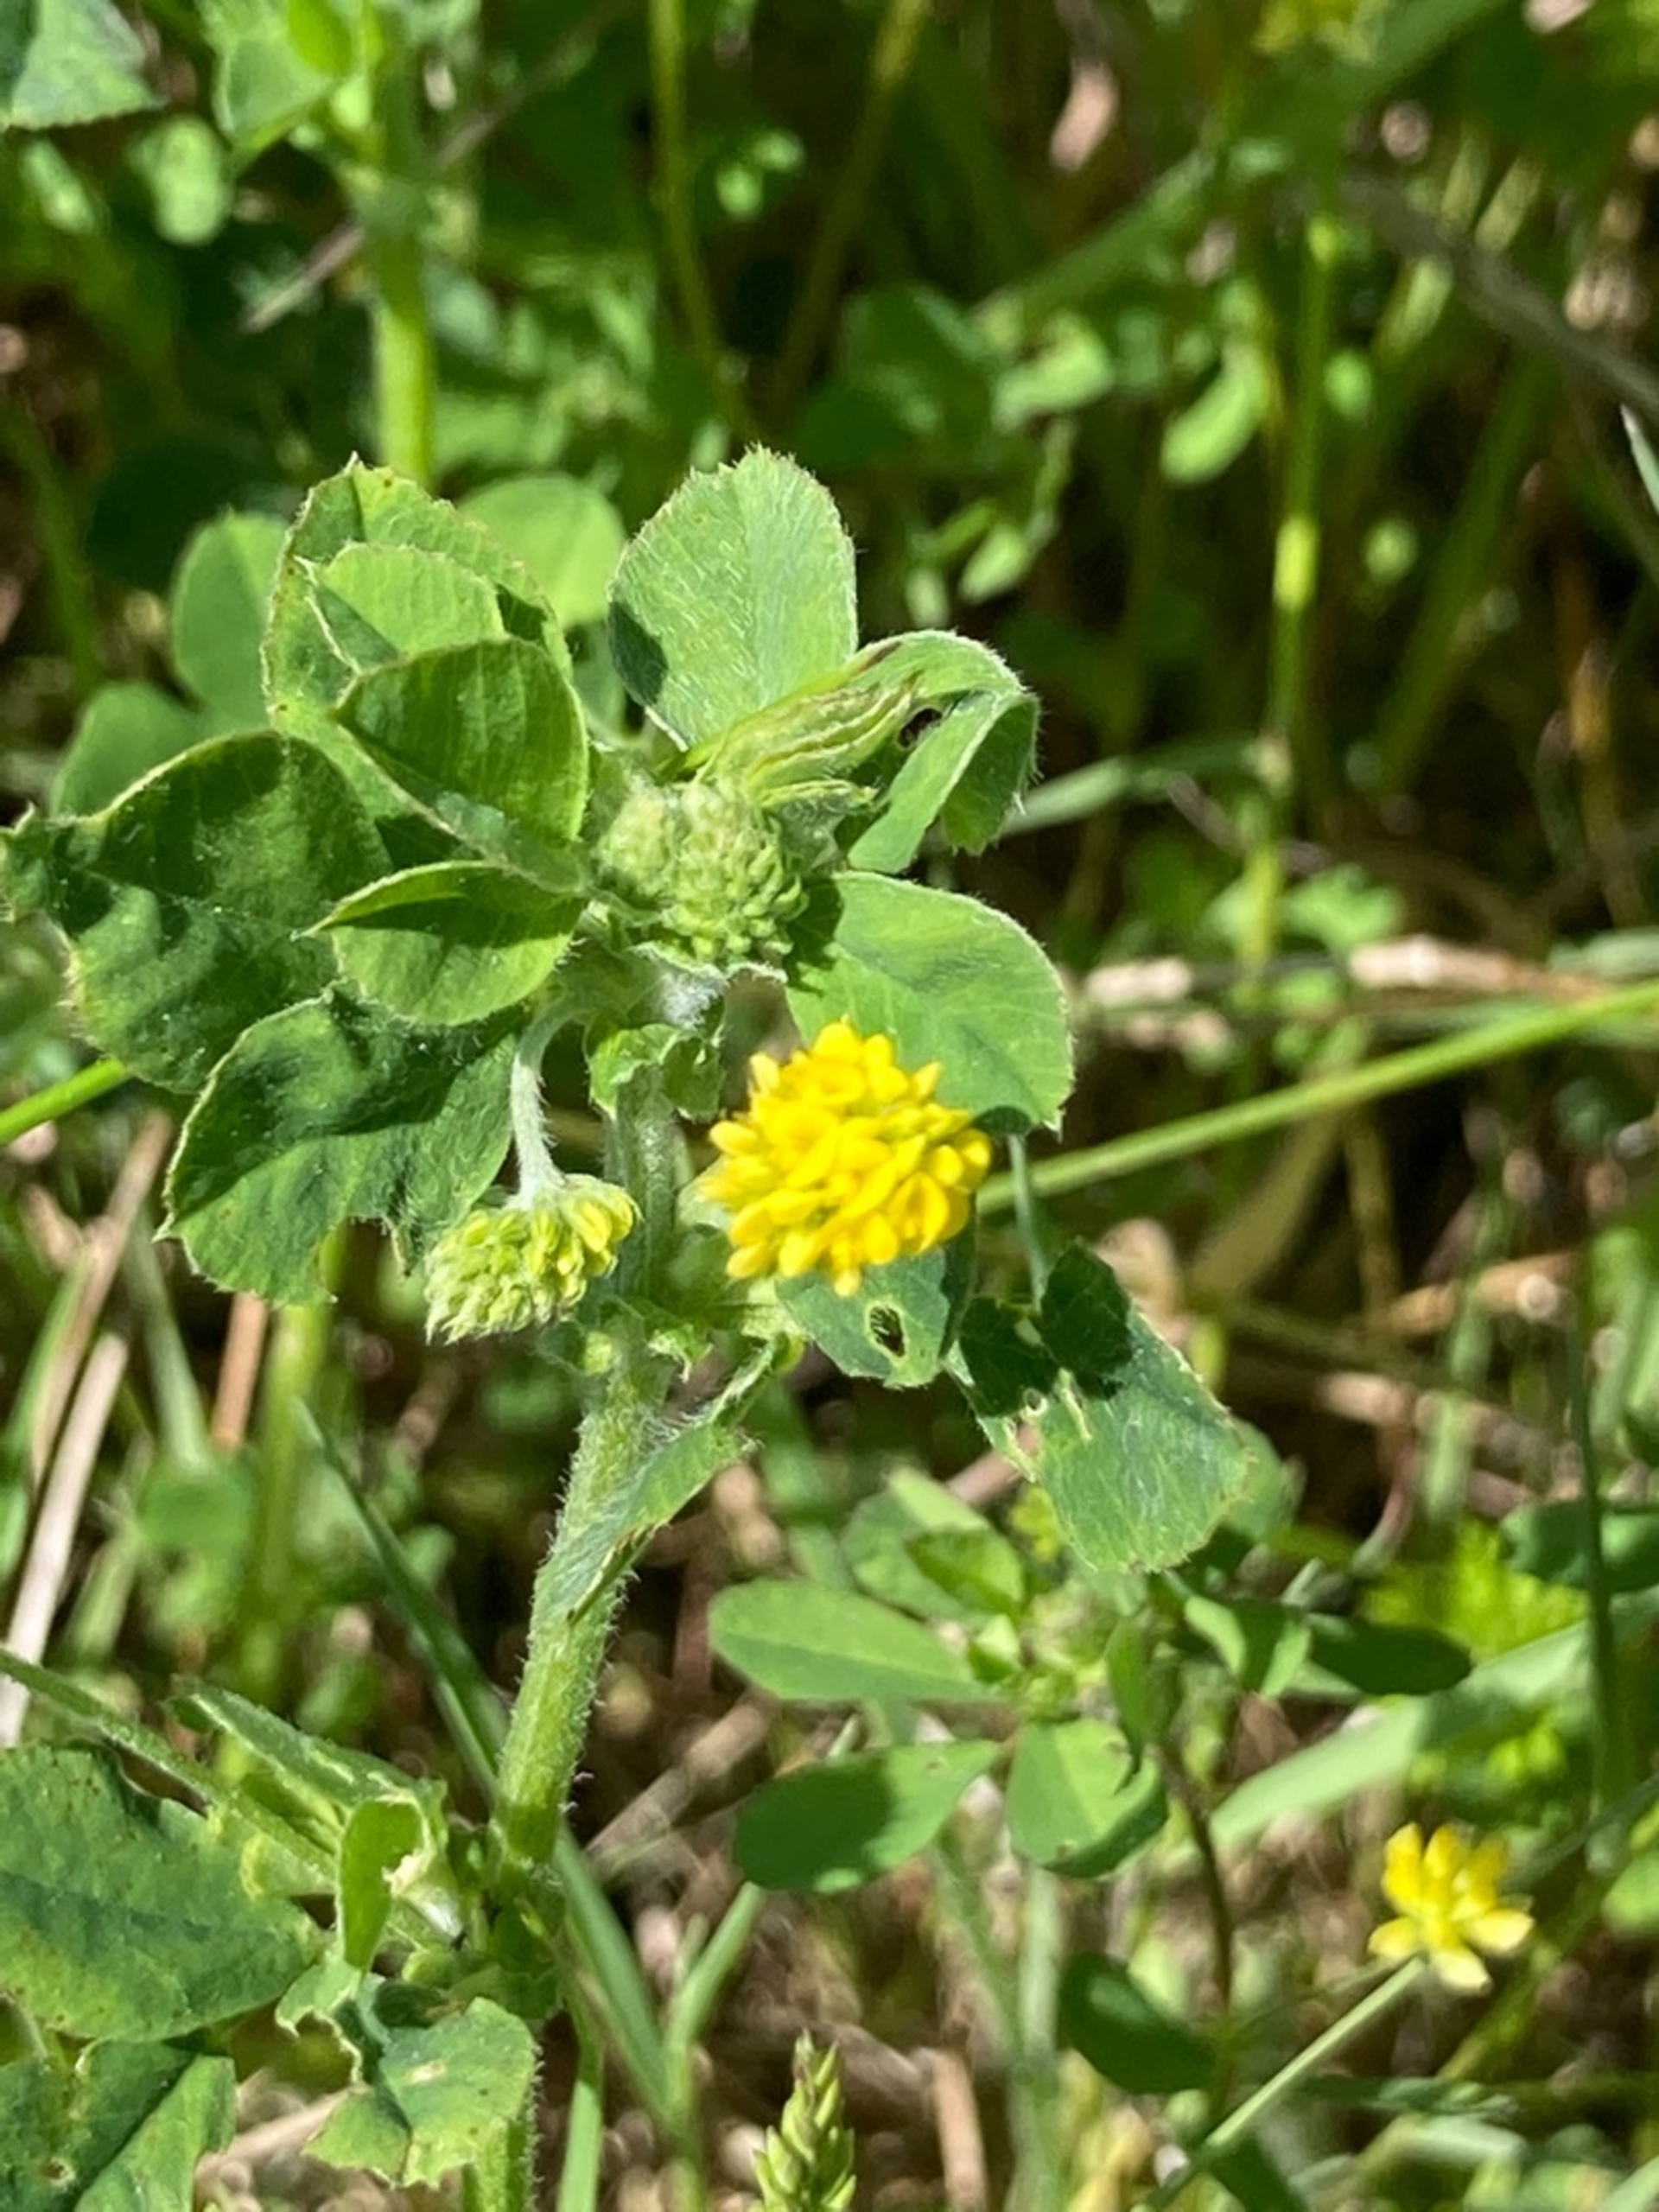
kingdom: Plantae
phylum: Tracheophyta
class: Magnoliopsida
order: Fabales
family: Fabaceae
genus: Medicago
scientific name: Medicago lupulina
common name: Humle-sneglebælg
